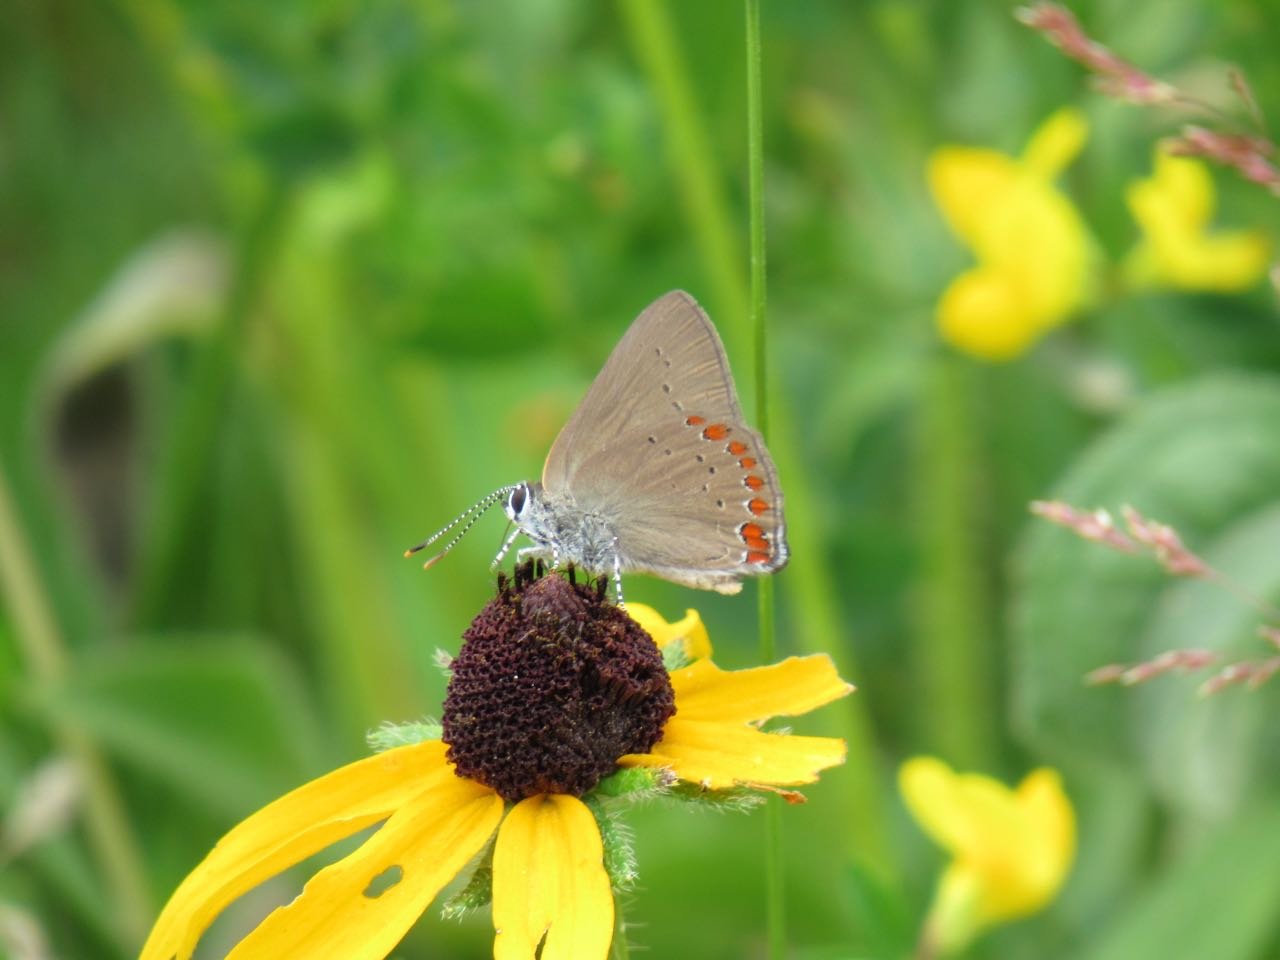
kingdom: Animalia
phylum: Arthropoda
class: Insecta
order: Lepidoptera
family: Lycaenidae
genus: Harkenclenus
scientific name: Harkenclenus titus
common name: Coral Hairstreak
